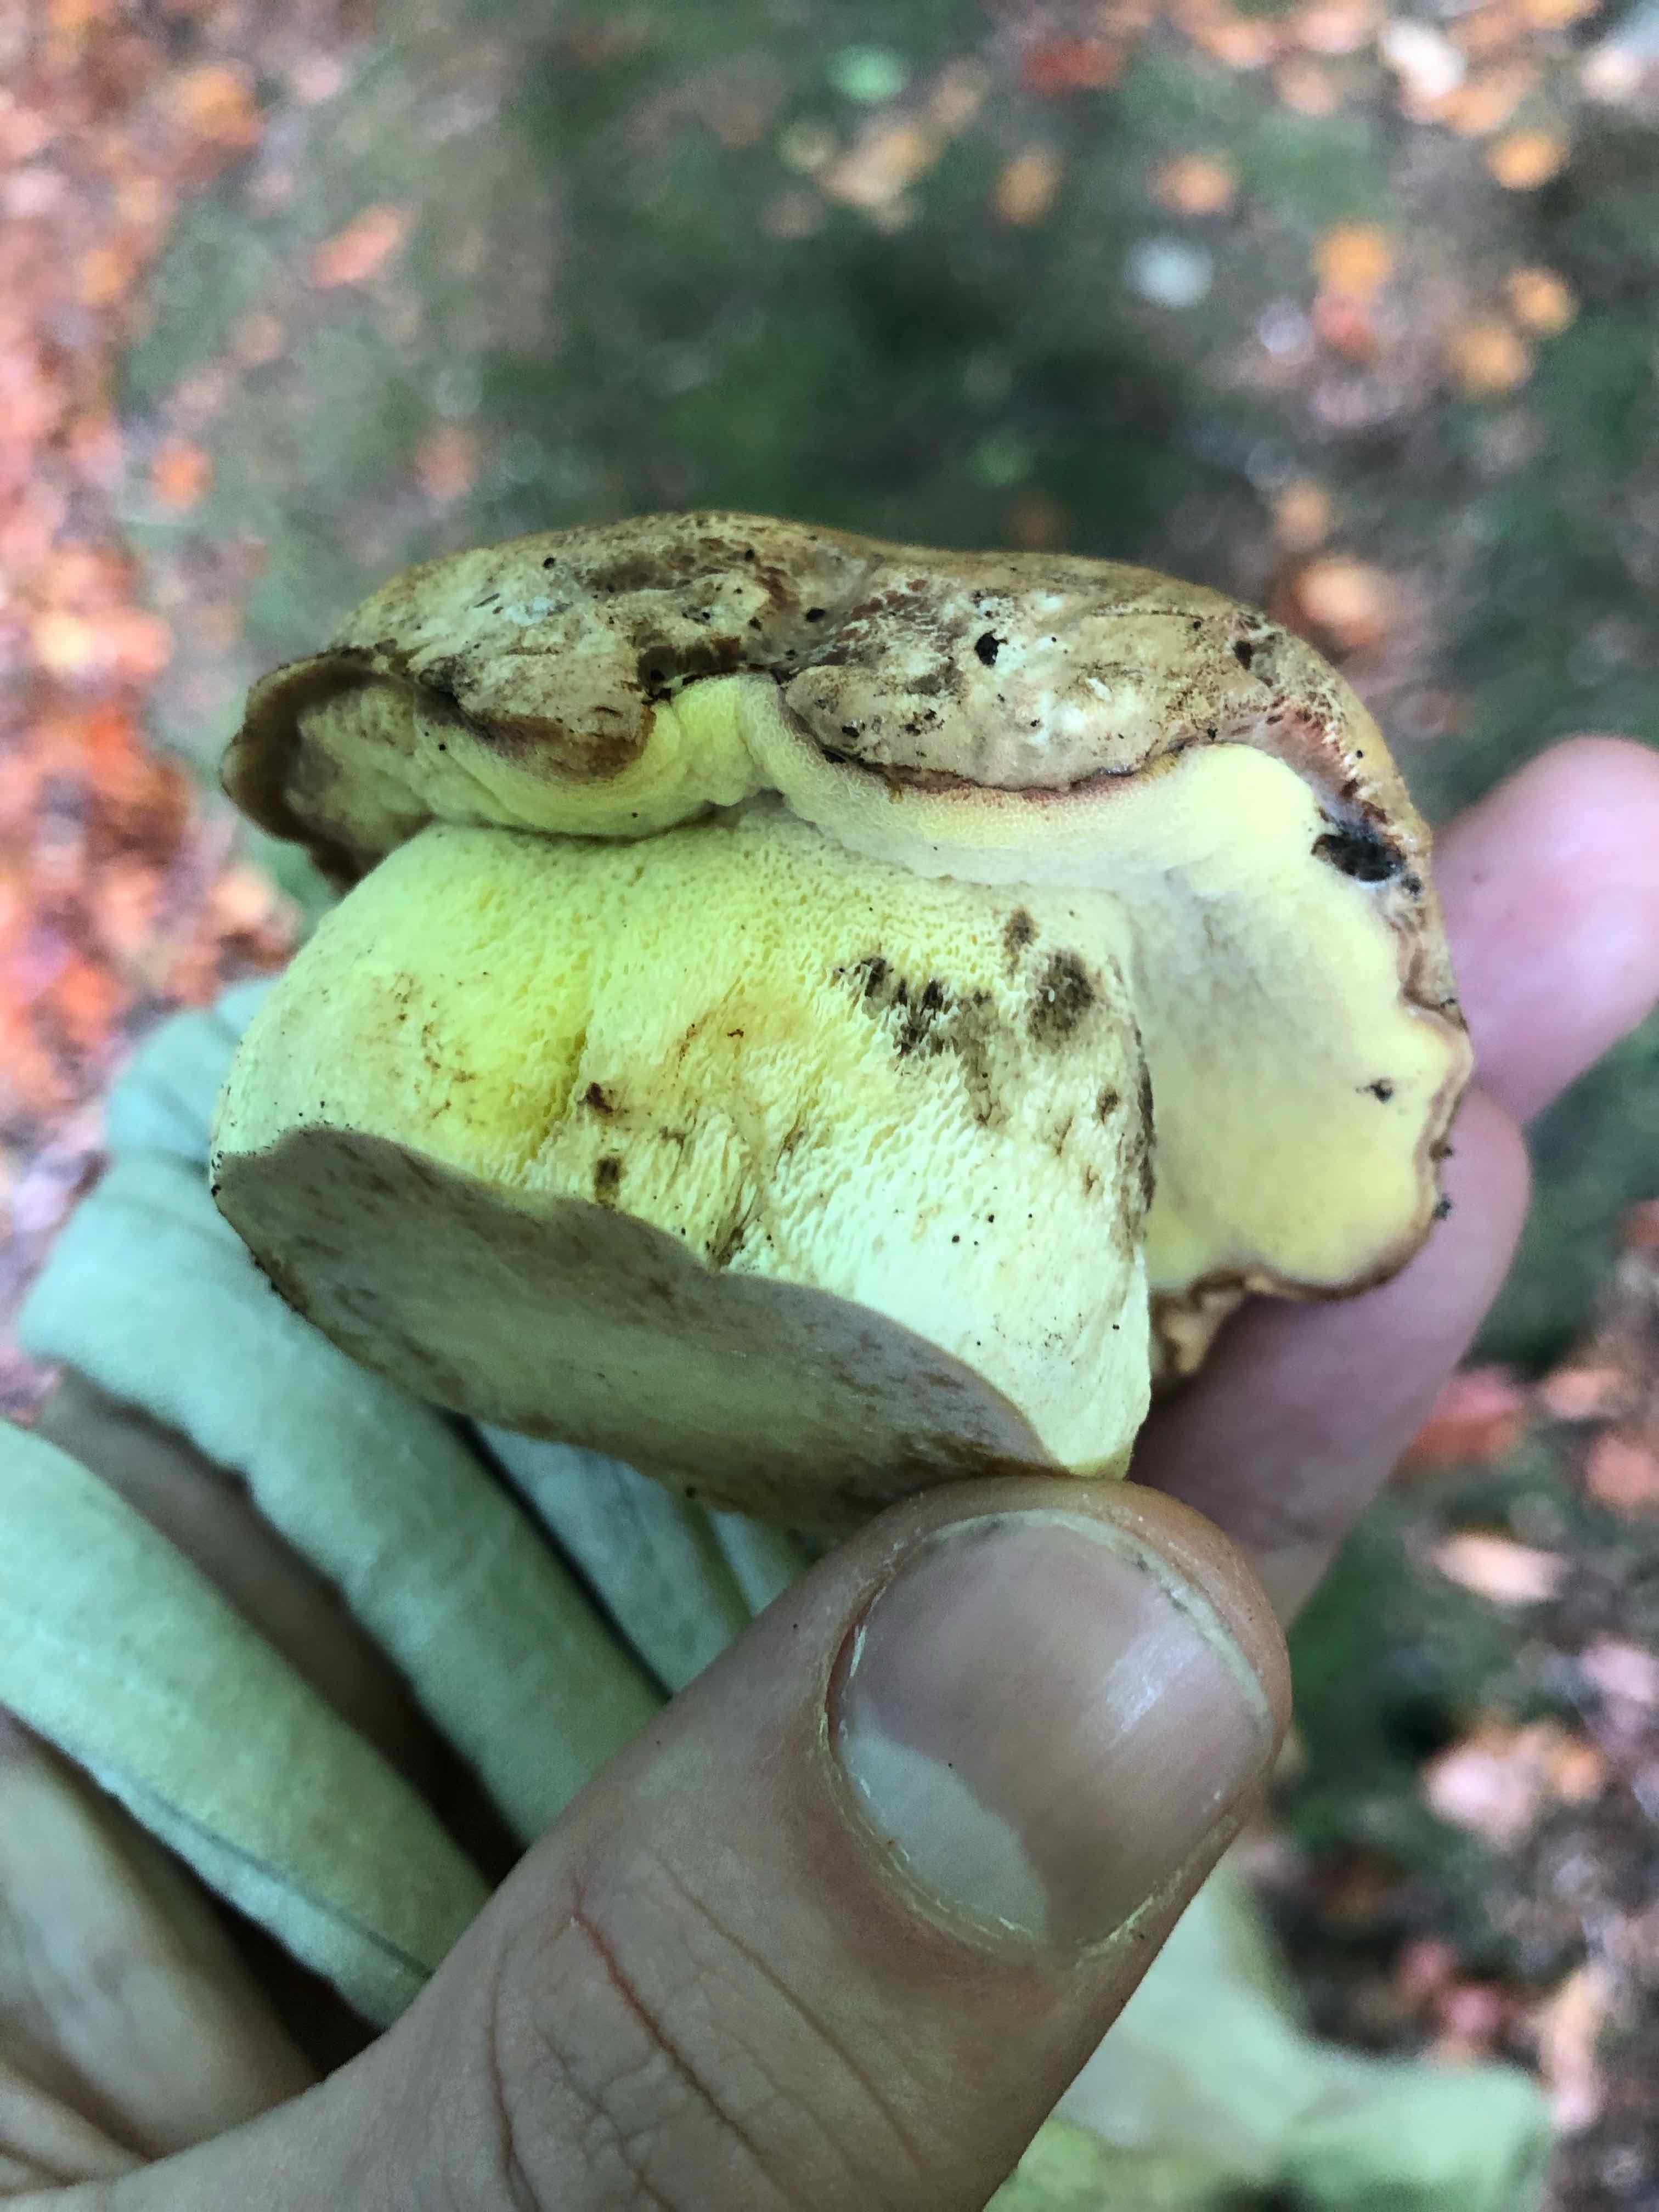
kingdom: Fungi
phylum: Basidiomycota
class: Agaricomycetes
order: Boletales
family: Boletaceae
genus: Caloboletus
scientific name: Caloboletus radicans
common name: rod-rørhat
